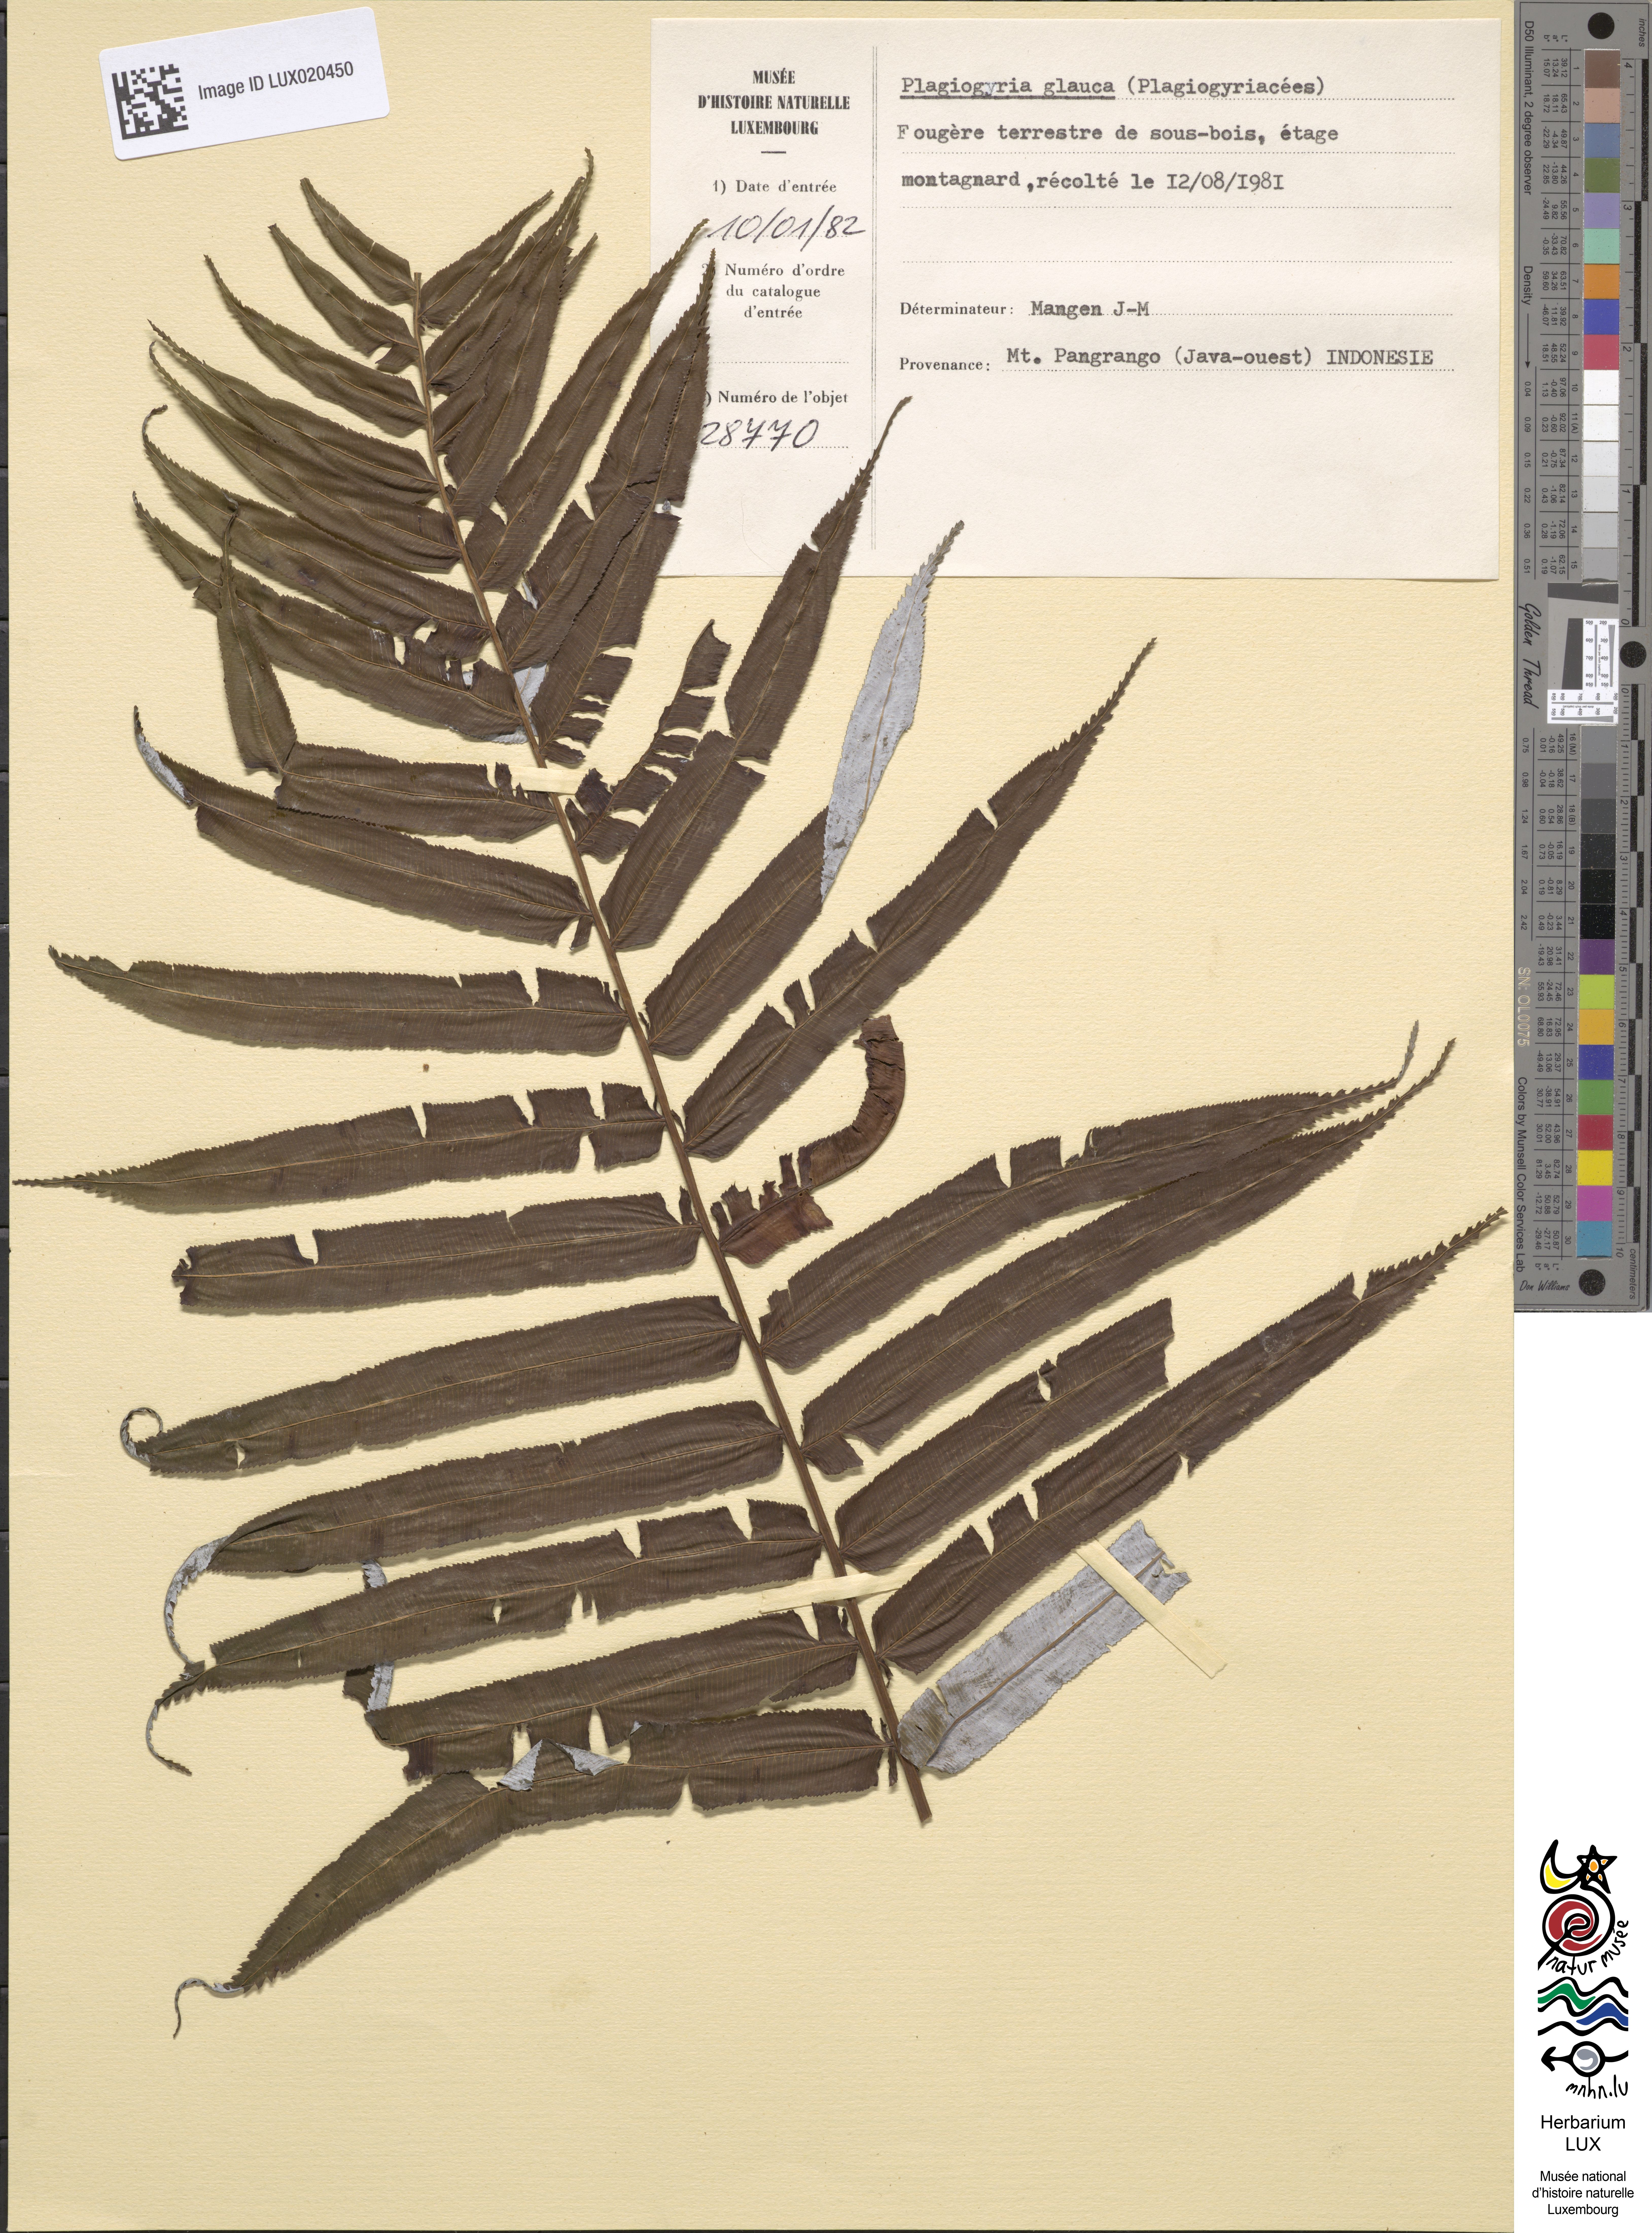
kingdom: Plantae
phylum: Tracheophyta
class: Polypodiopsida
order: Cyatheales
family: Plagiogyriaceae
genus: Plagiogyria
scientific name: Plagiogyria glauca
